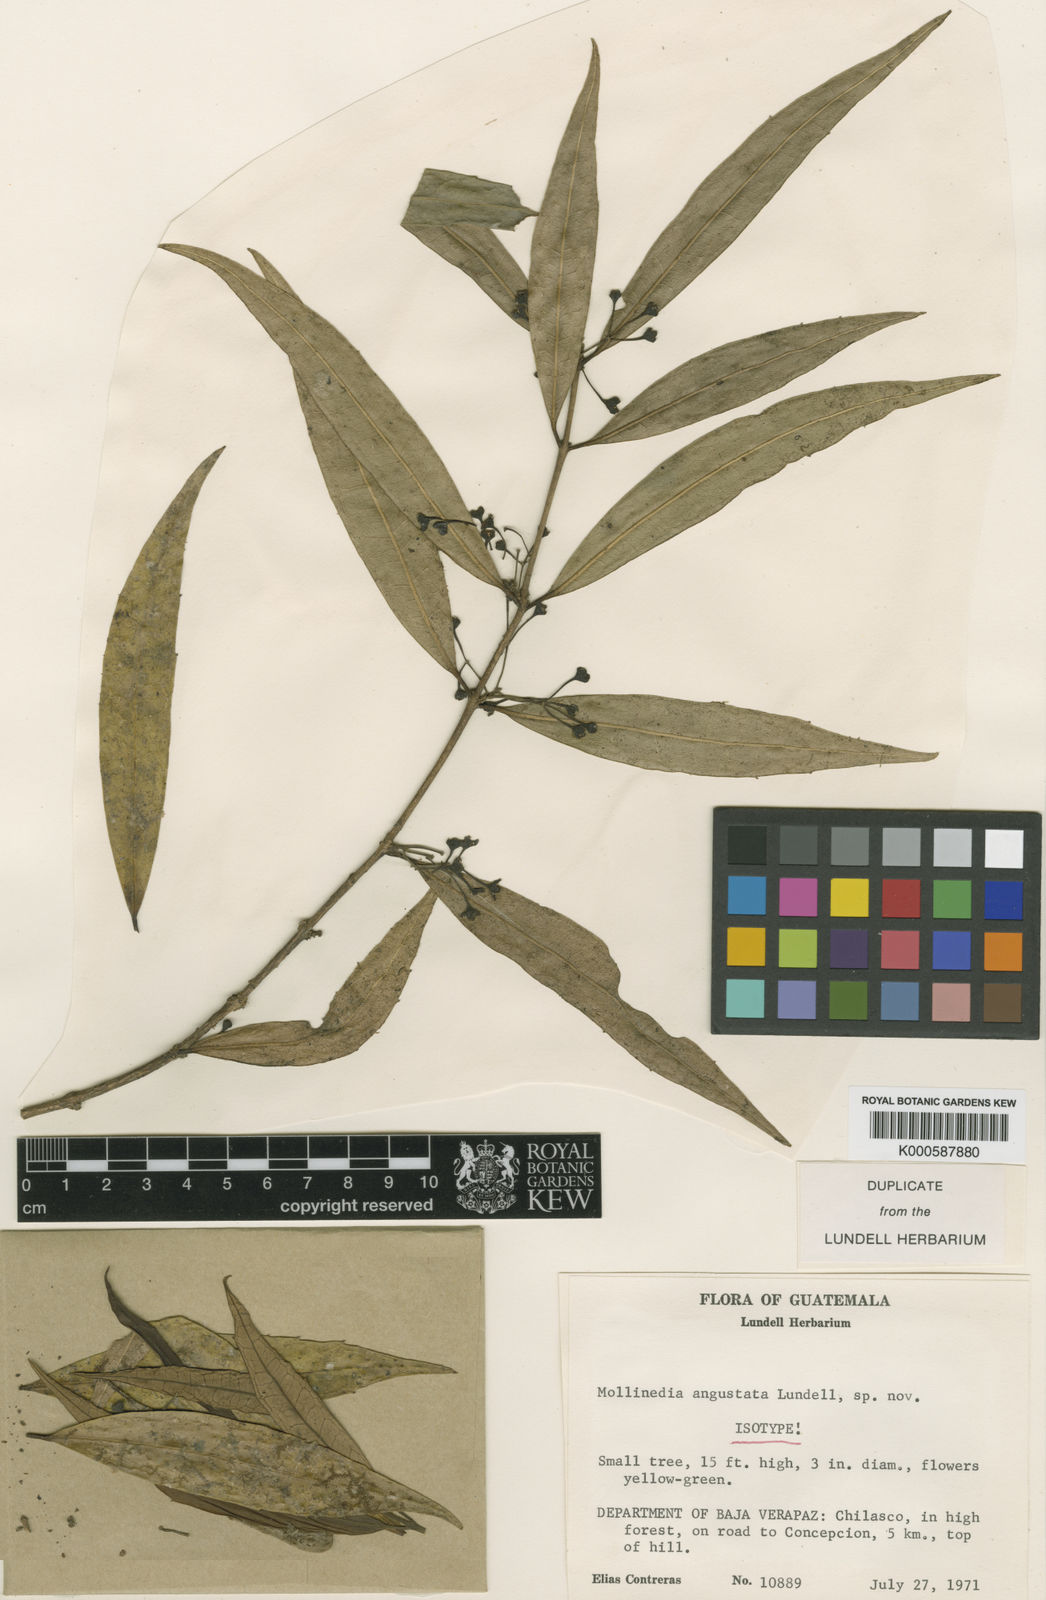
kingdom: Plantae
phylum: Tracheophyta
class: Magnoliopsida
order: Laurales
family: Monimiaceae
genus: Mollinedia
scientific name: Mollinedia angustata
